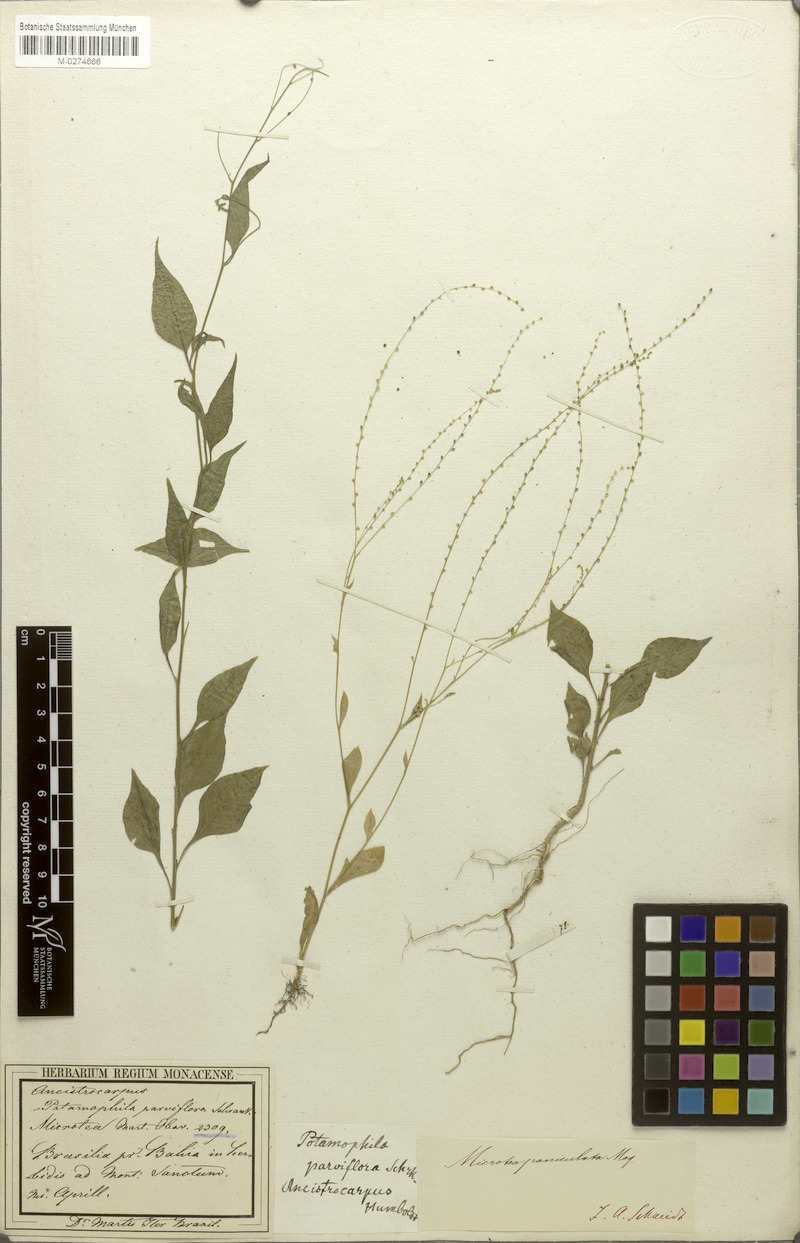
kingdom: Plantae
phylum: Tracheophyta
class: Magnoliopsida
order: Caryophyllales
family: Microteaceae
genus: Microtea
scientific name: Microtea paniculata
